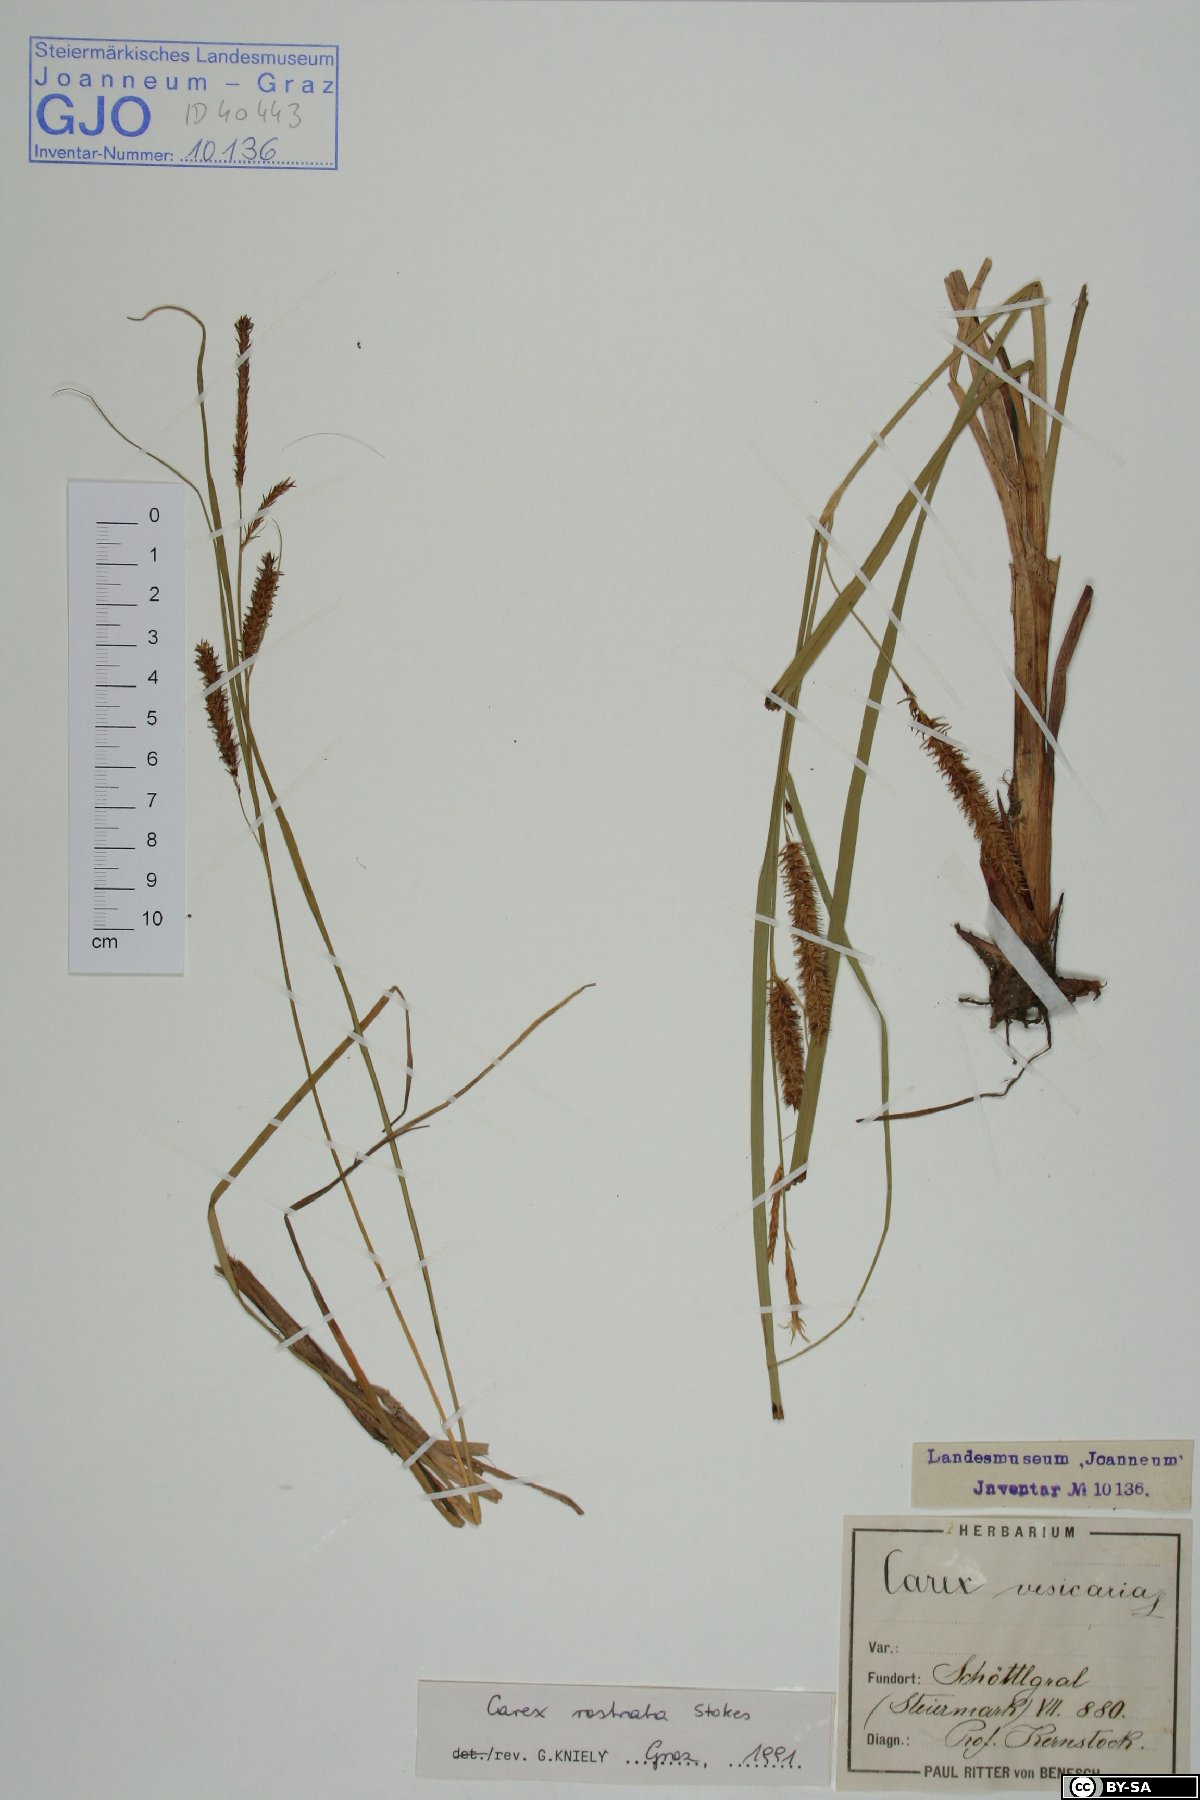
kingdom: Plantae
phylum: Tracheophyta
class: Liliopsida
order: Poales
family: Cyperaceae
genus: Carex
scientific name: Carex rostrata
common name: Bottle sedge
